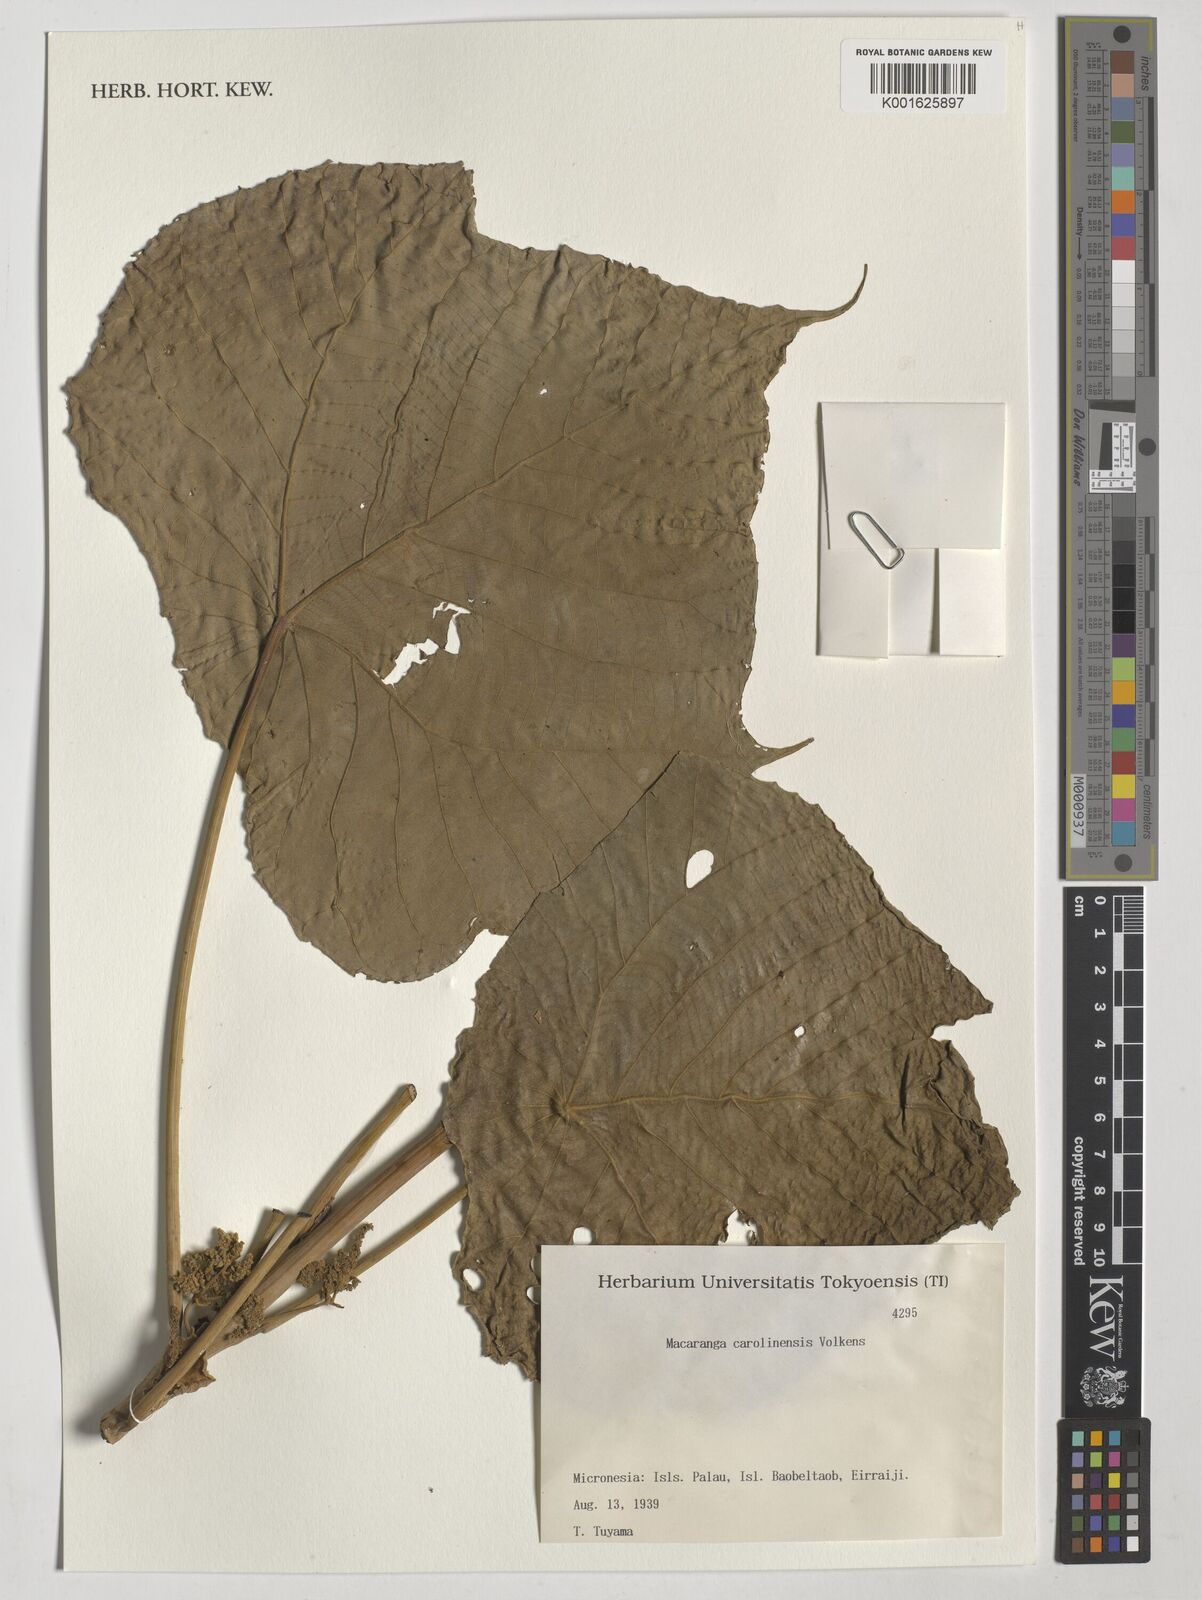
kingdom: Plantae
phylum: Tracheophyta
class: Magnoliopsida
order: Malpighiales
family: Euphorbiaceae
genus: Macaranga
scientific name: Macaranga carolinensis
